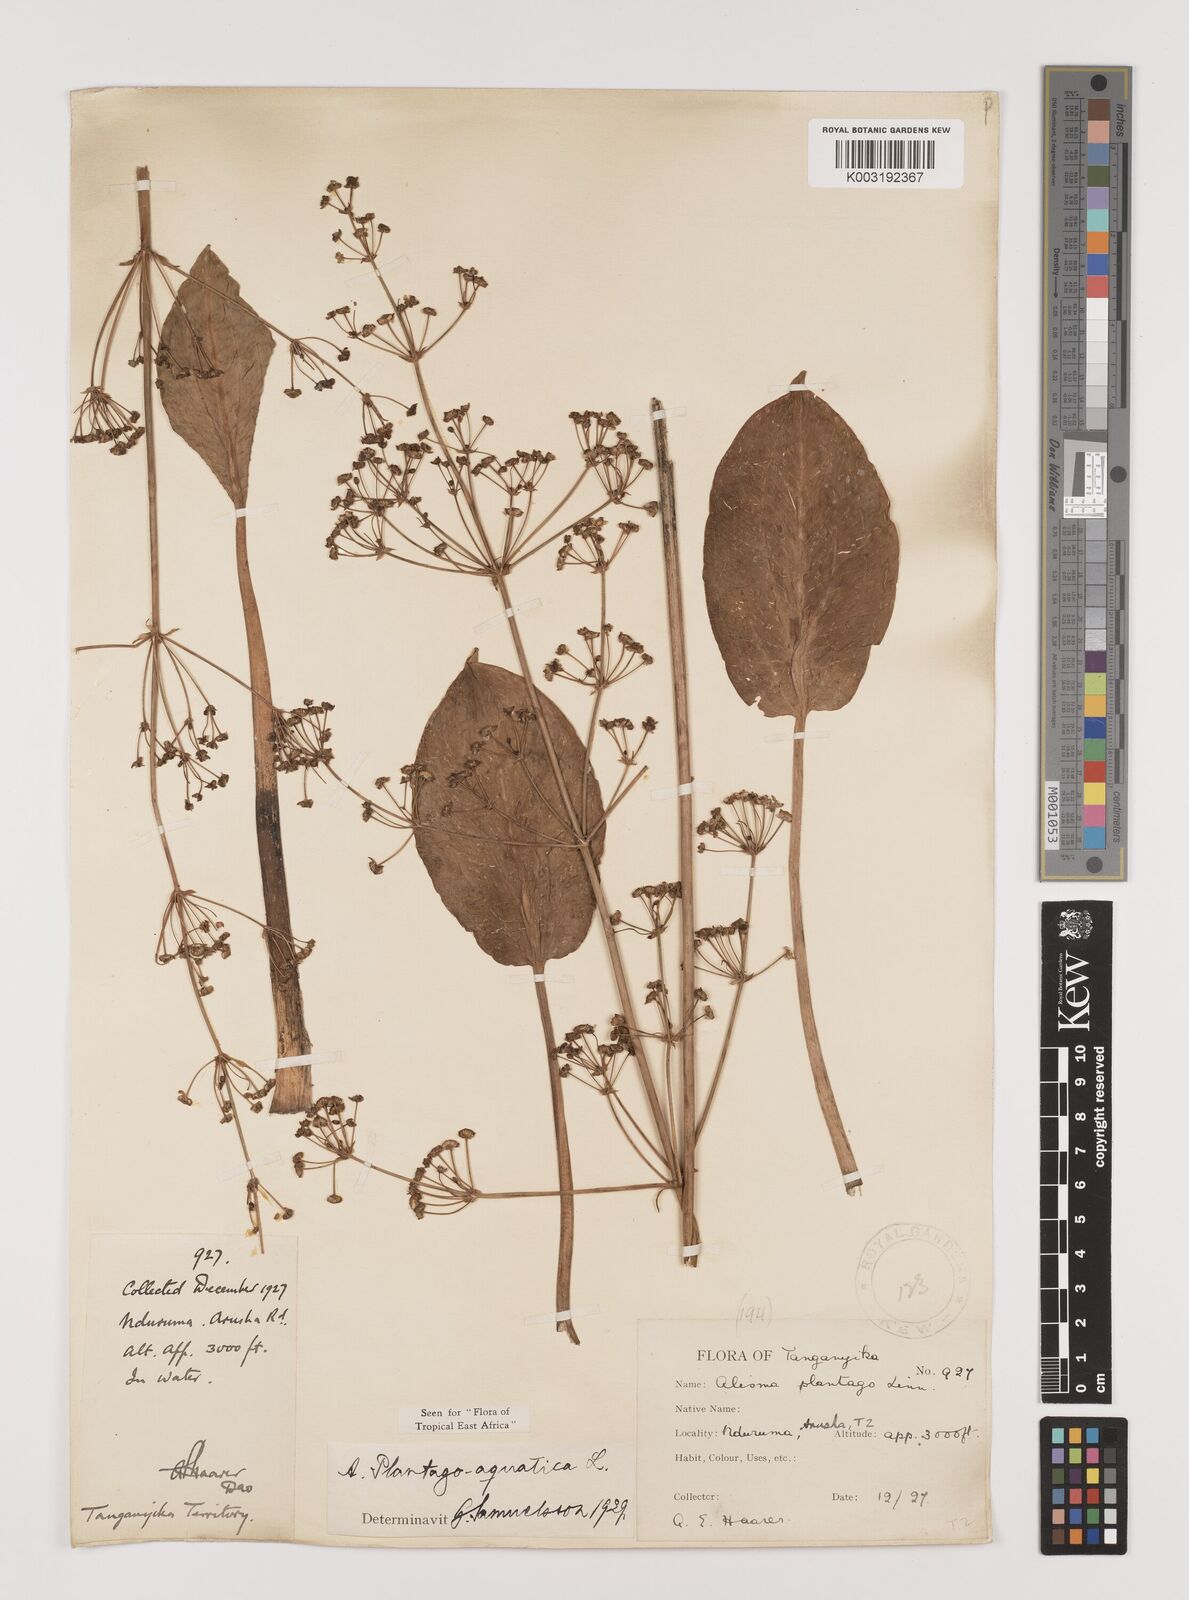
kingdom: Plantae
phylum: Tracheophyta
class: Liliopsida
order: Alismatales
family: Alismataceae
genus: Alisma
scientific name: Alisma plantago-aquatica
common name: Water-plantain
